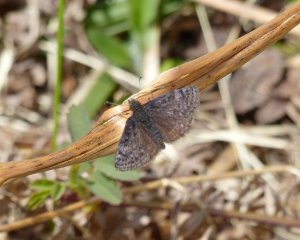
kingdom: Animalia
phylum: Arthropoda
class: Insecta
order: Lepidoptera
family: Hesperiidae
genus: Erynnis
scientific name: Erynnis icelus
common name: Dreamy Duskywing
